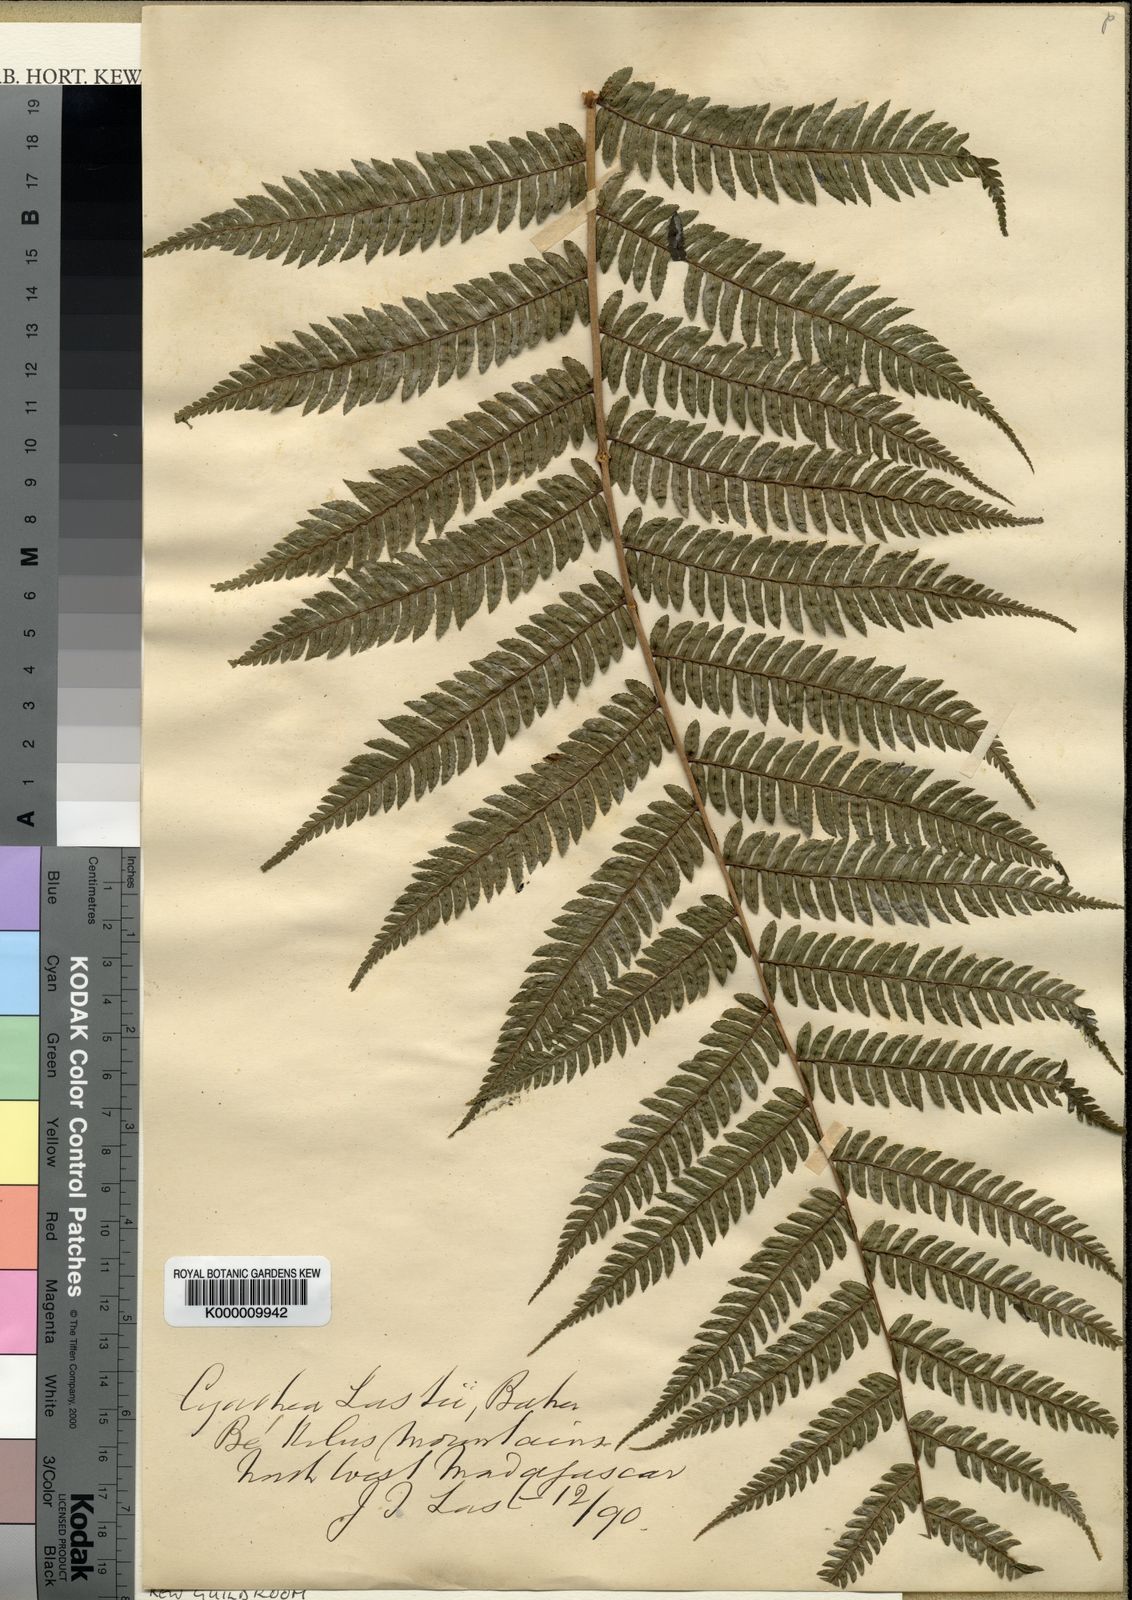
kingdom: Plantae
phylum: Tracheophyta
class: Polypodiopsida
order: Cyatheales
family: Cyatheaceae
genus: Alsophila
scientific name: Alsophila lastii
